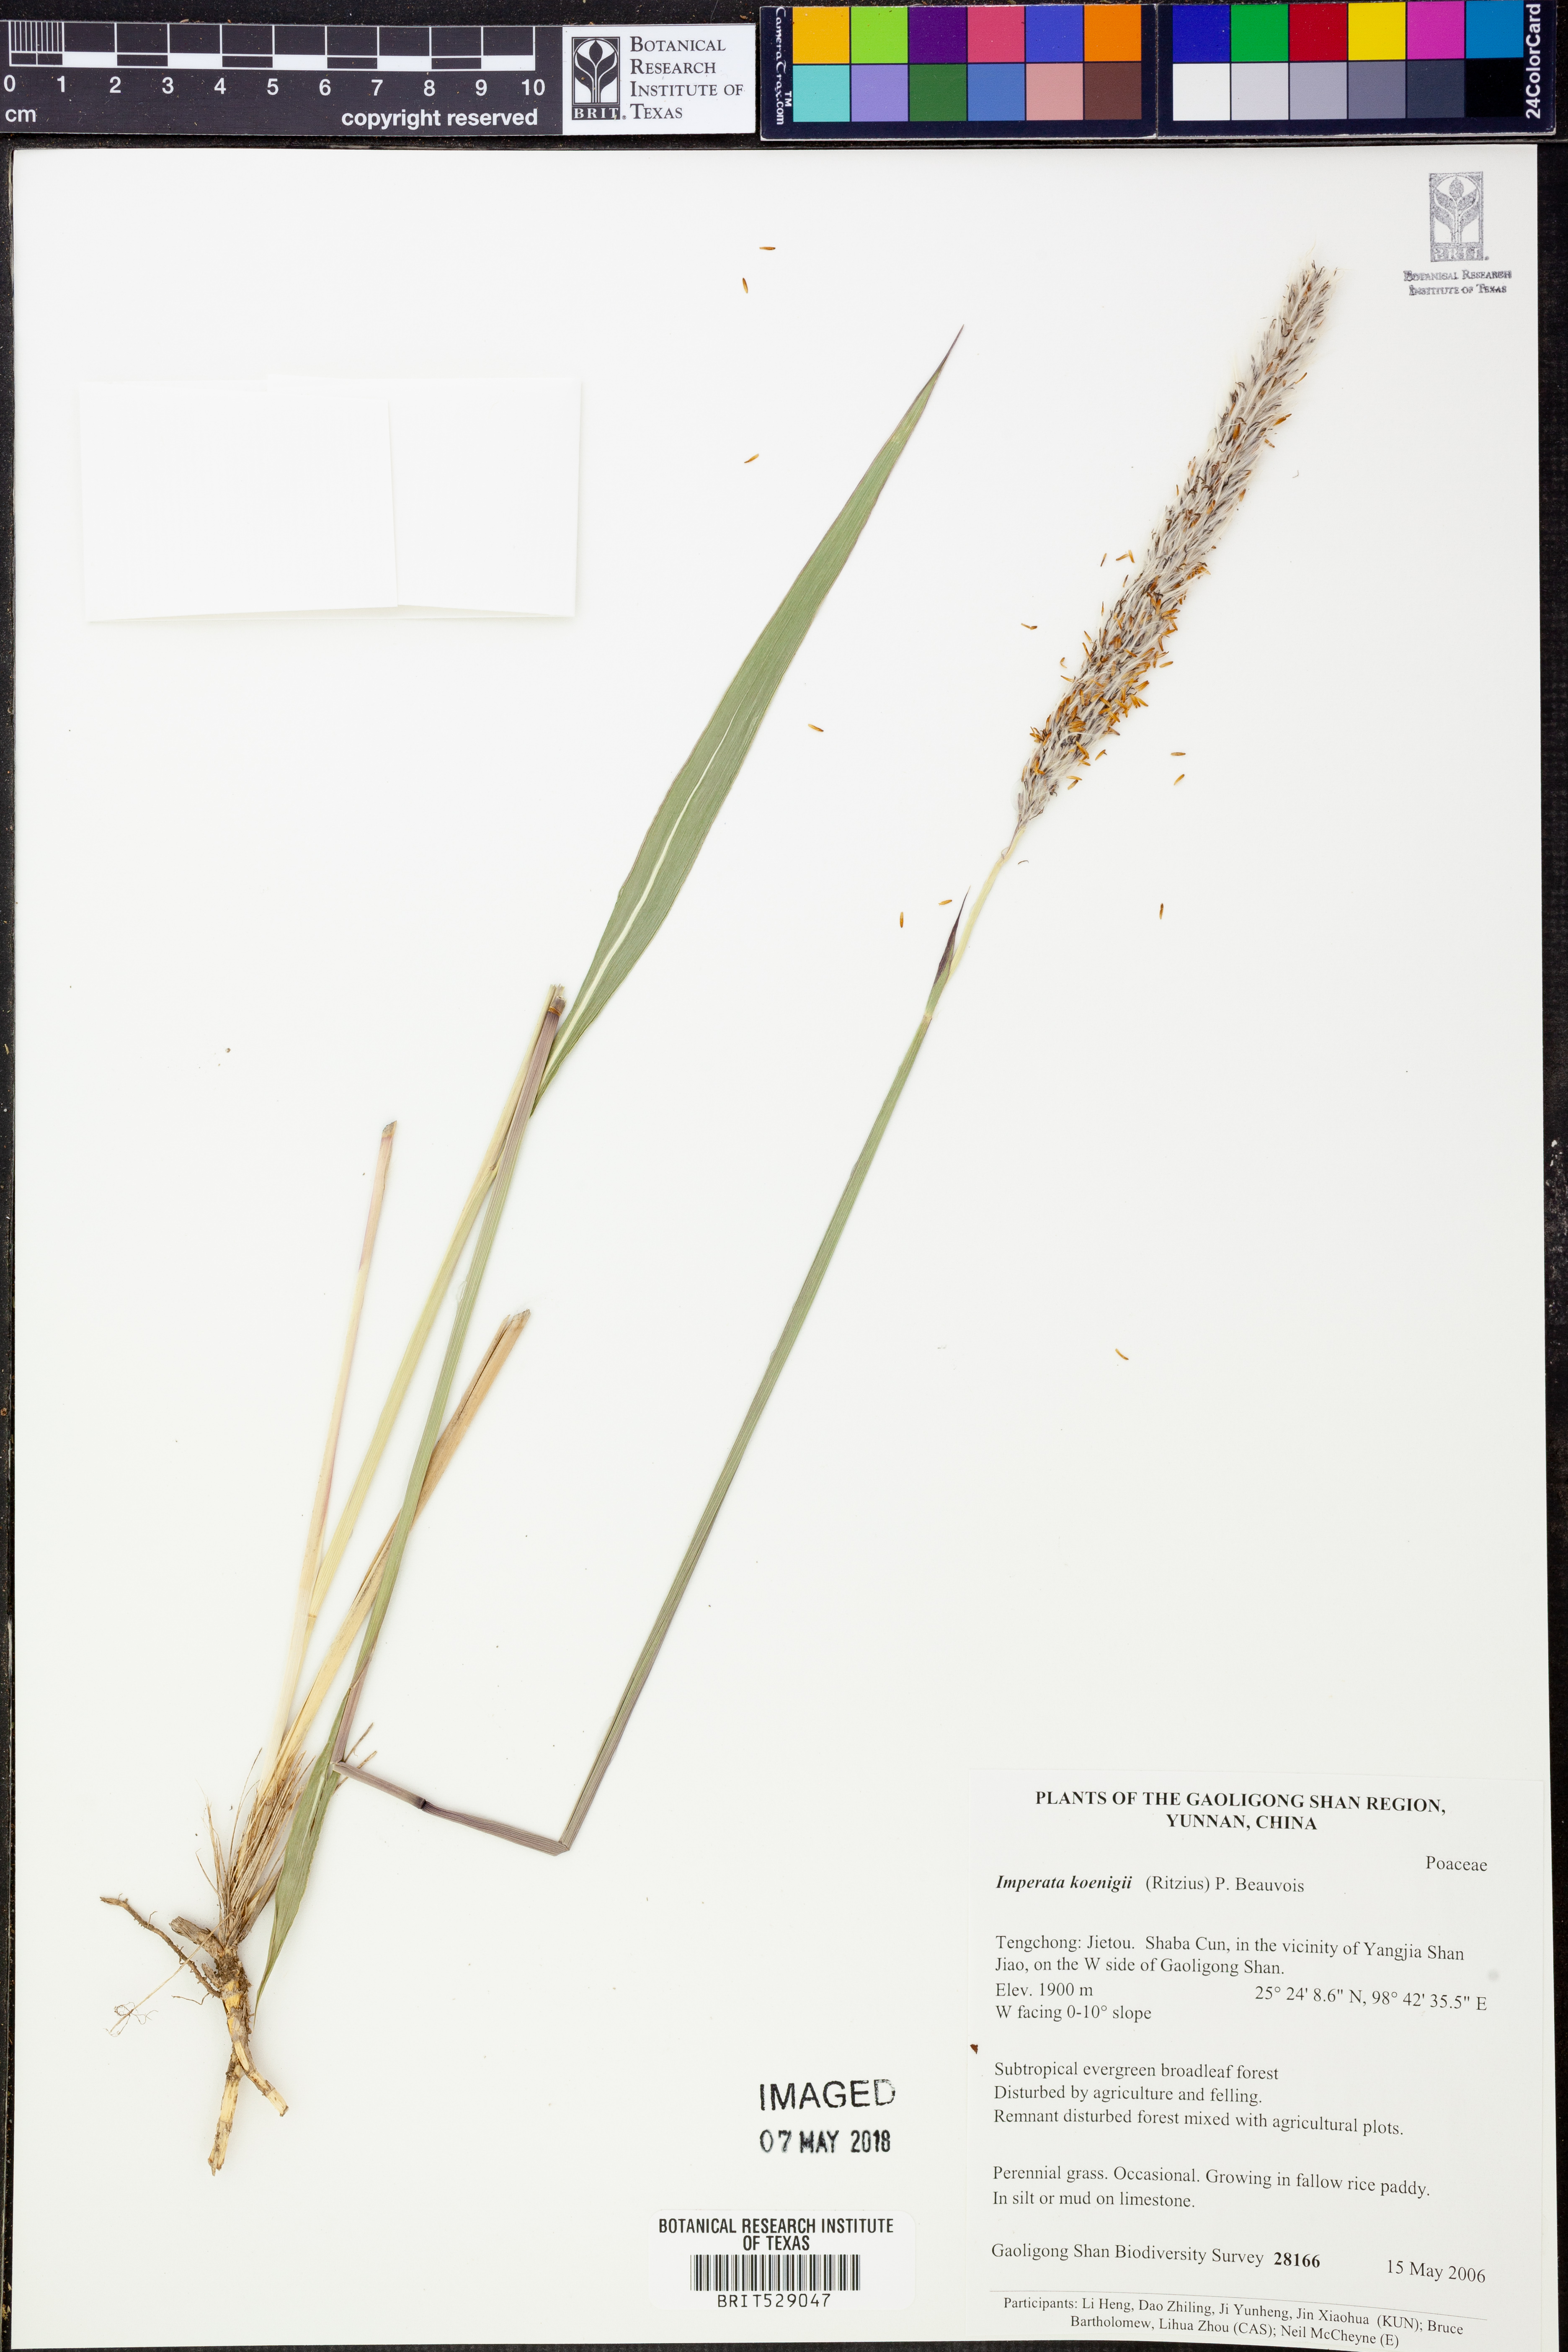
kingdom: Plantae
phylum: Tracheophyta
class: Liliopsida
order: Poales
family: Poaceae
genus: Imperata
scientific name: Imperata cylindrica
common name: Cogongrass
